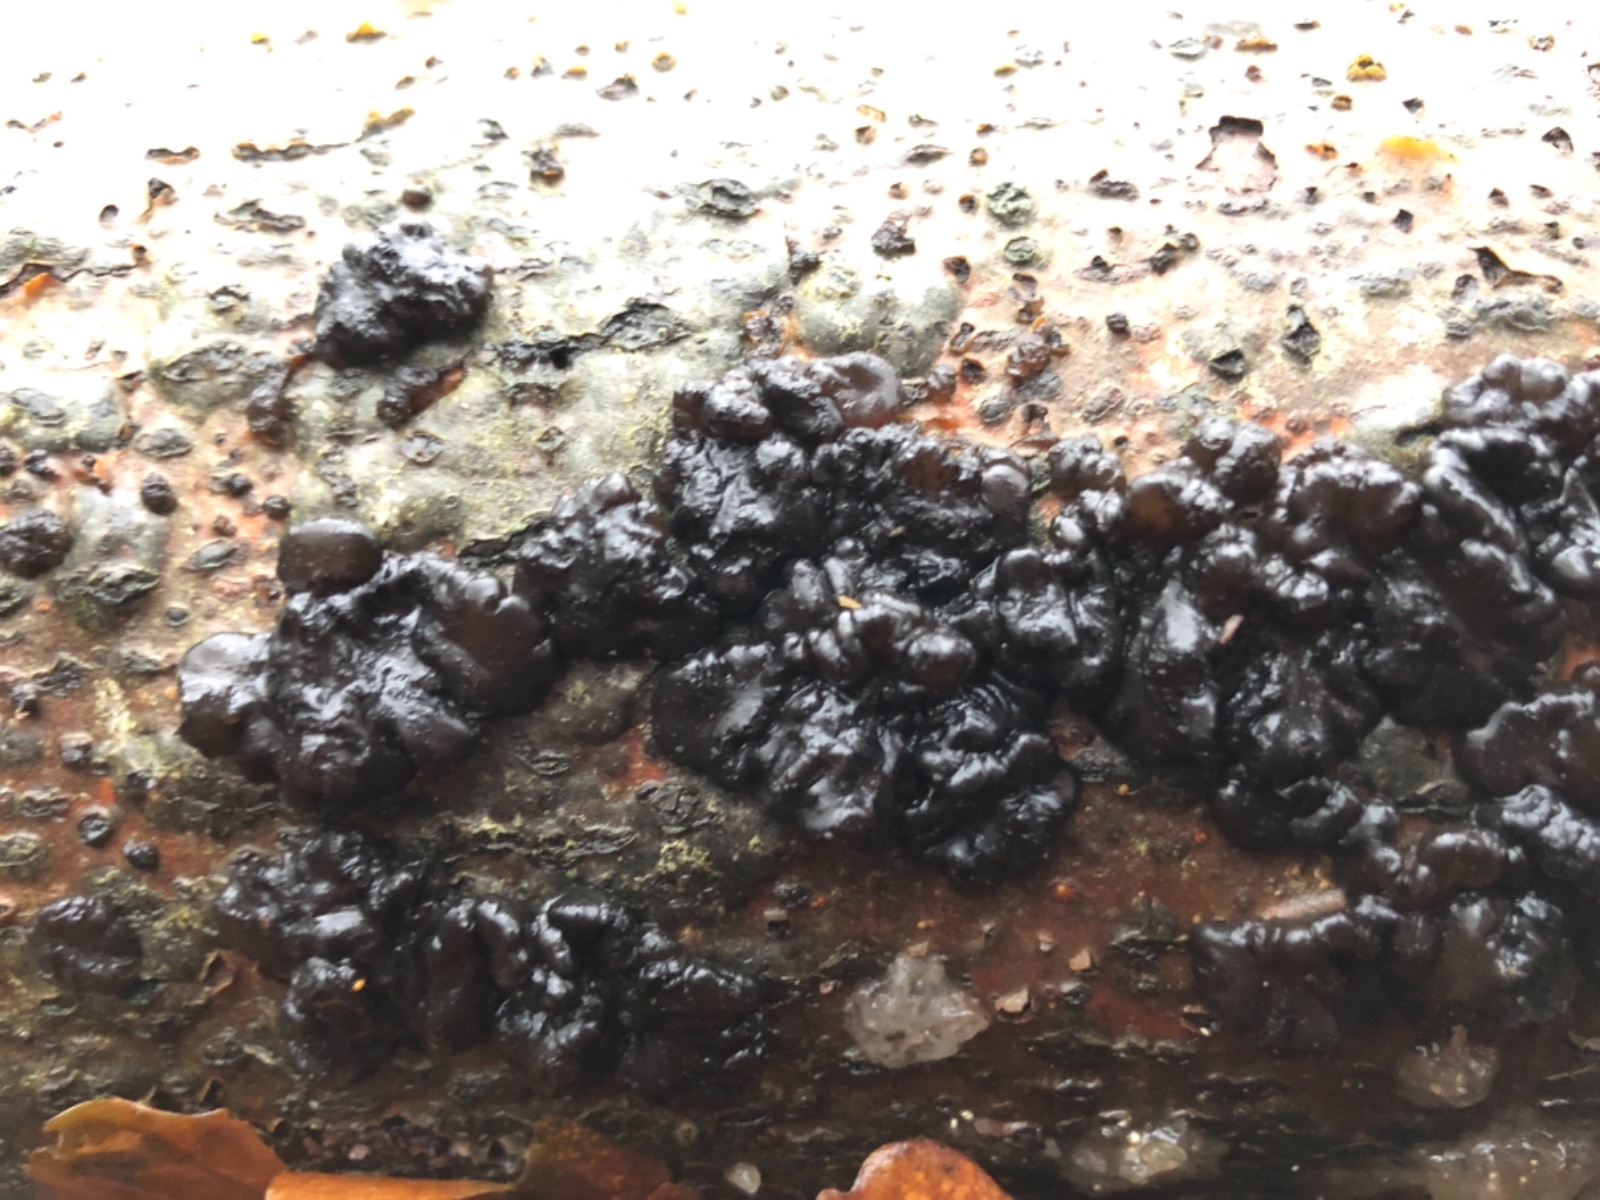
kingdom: Fungi
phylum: Basidiomycota
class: Agaricomycetes
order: Auriculariales
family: Auriculariaceae
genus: Exidia
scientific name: Exidia nigricans
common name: almindelig bævretop
